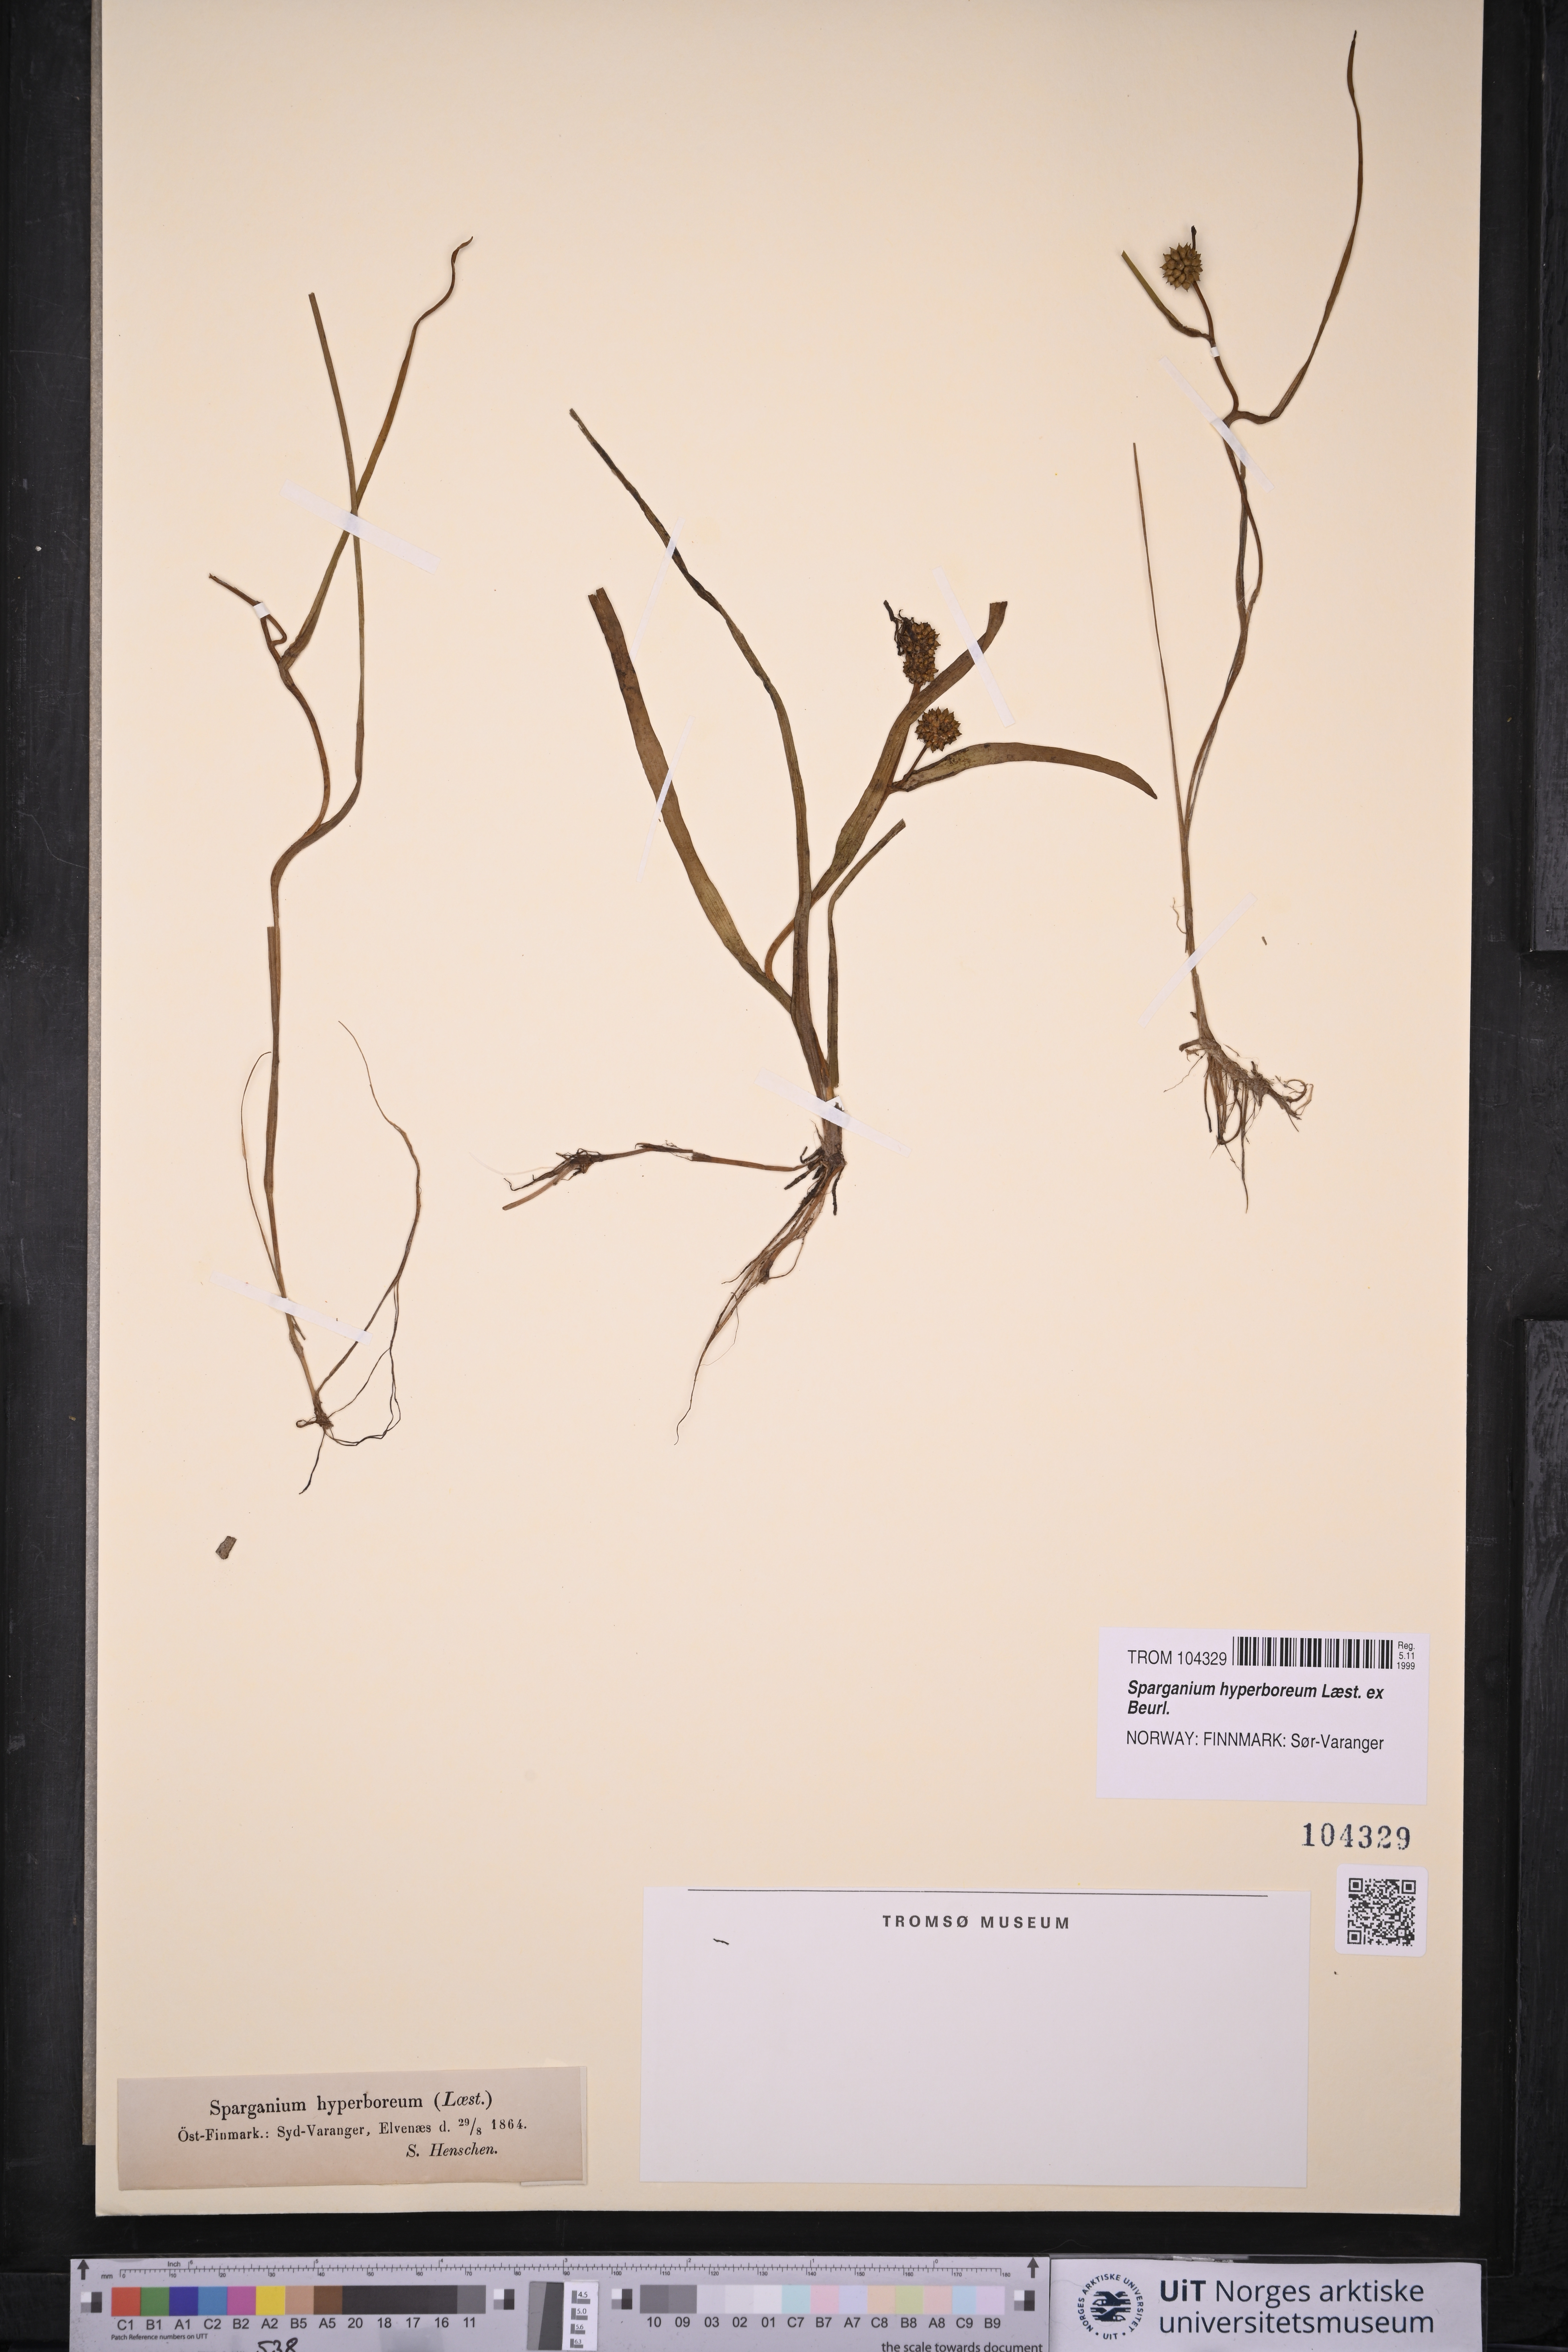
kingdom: Plantae
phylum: Tracheophyta
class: Liliopsida
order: Poales
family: Typhaceae
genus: Sparganium
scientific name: Sparganium hyperboreum
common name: Arctic burreed
